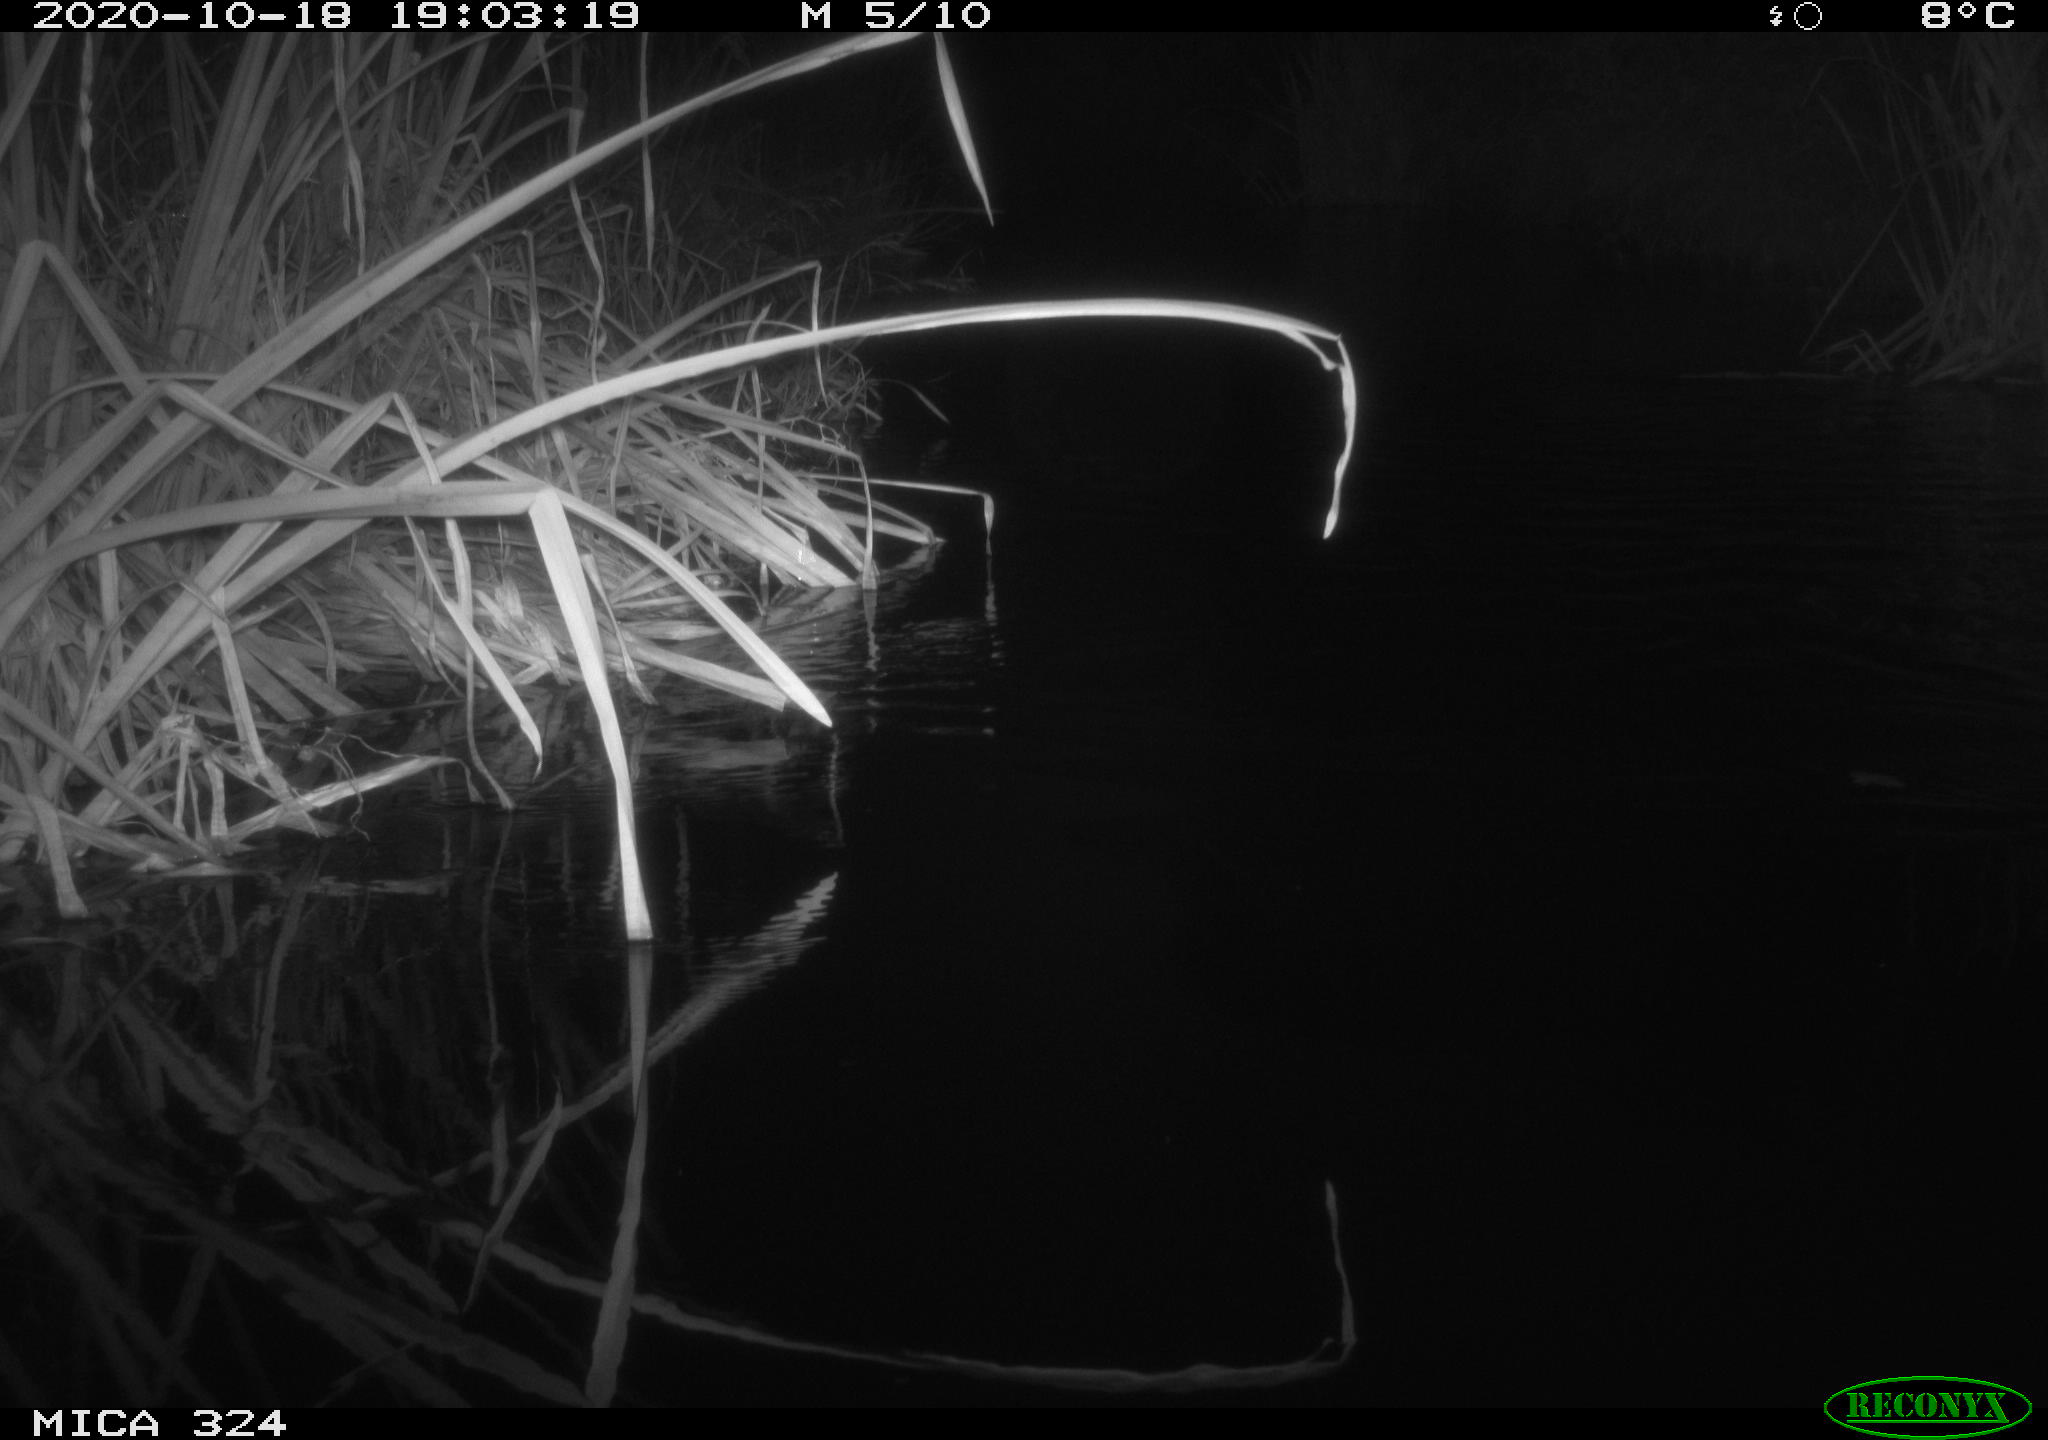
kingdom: Animalia
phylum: Chordata
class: Aves
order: Gruiformes
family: Rallidae
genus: Gallinula
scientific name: Gallinula chloropus
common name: Common moorhen
